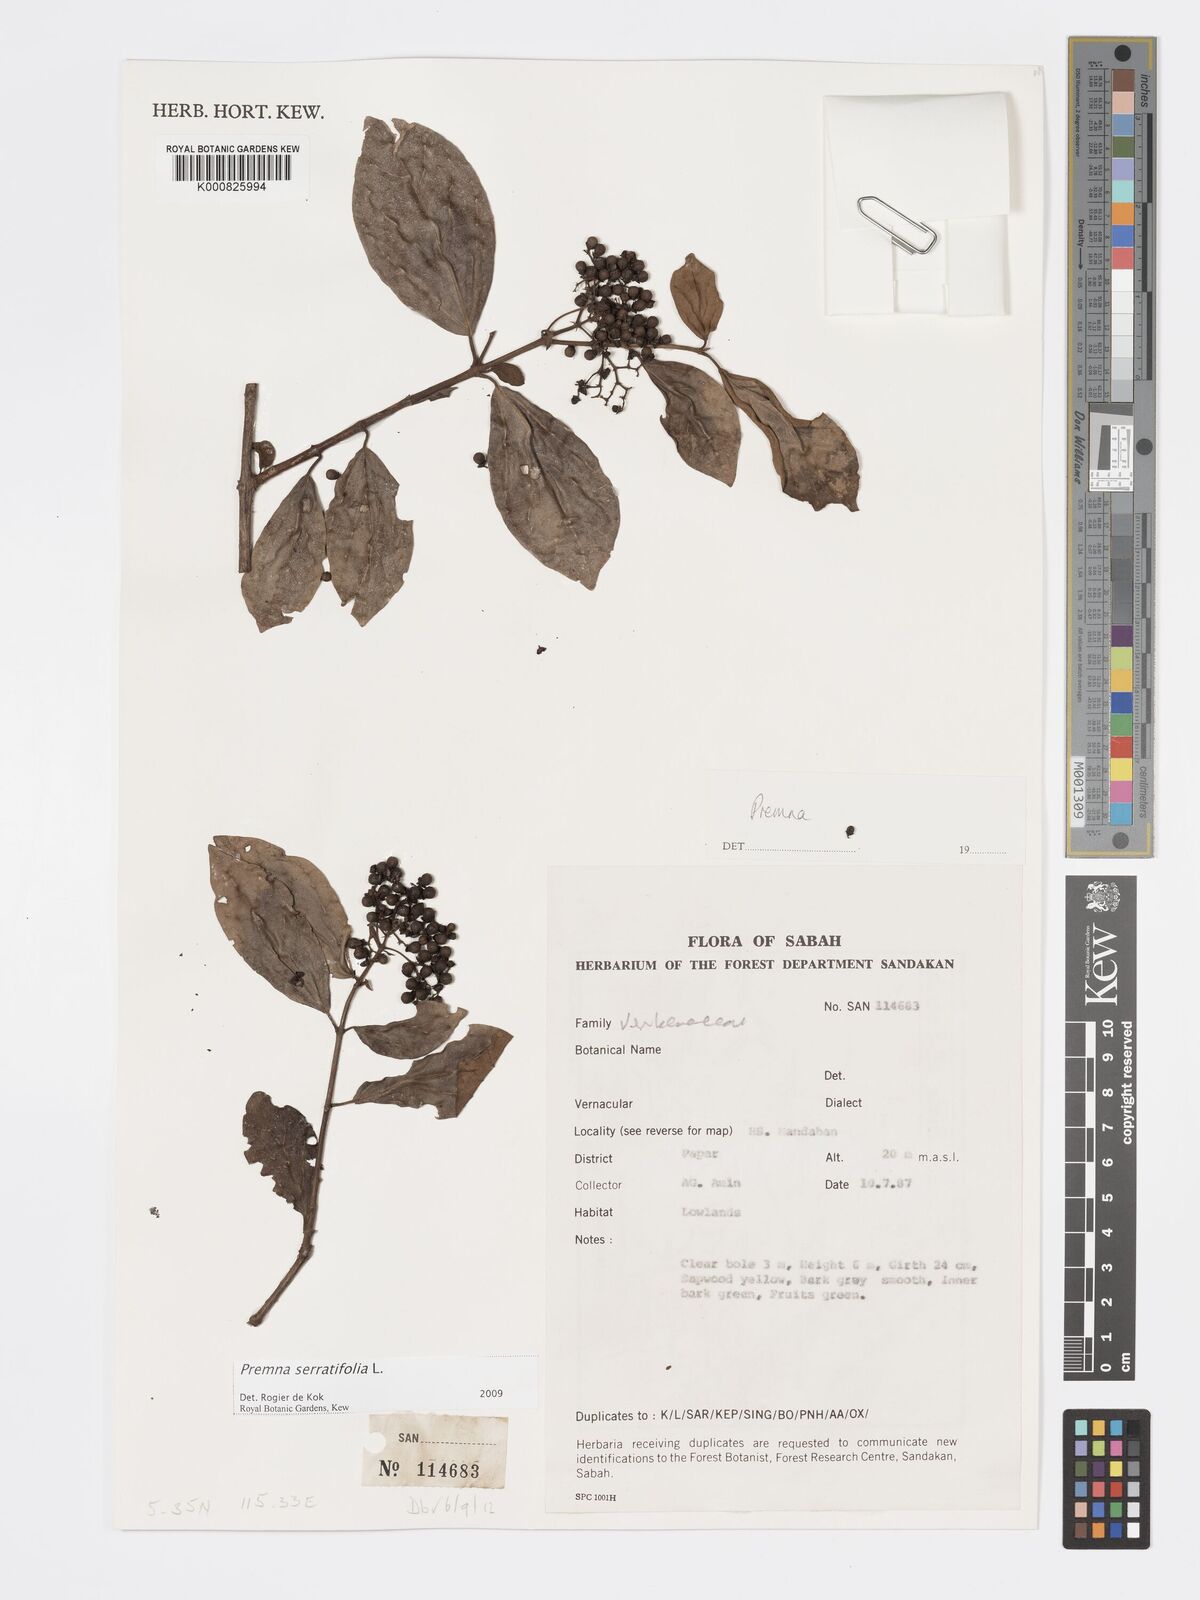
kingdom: Plantae
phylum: Tracheophyta
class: Magnoliopsida
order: Lamiales
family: Lamiaceae
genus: Premna
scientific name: Premna serratifolia
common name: Bastard guelder
